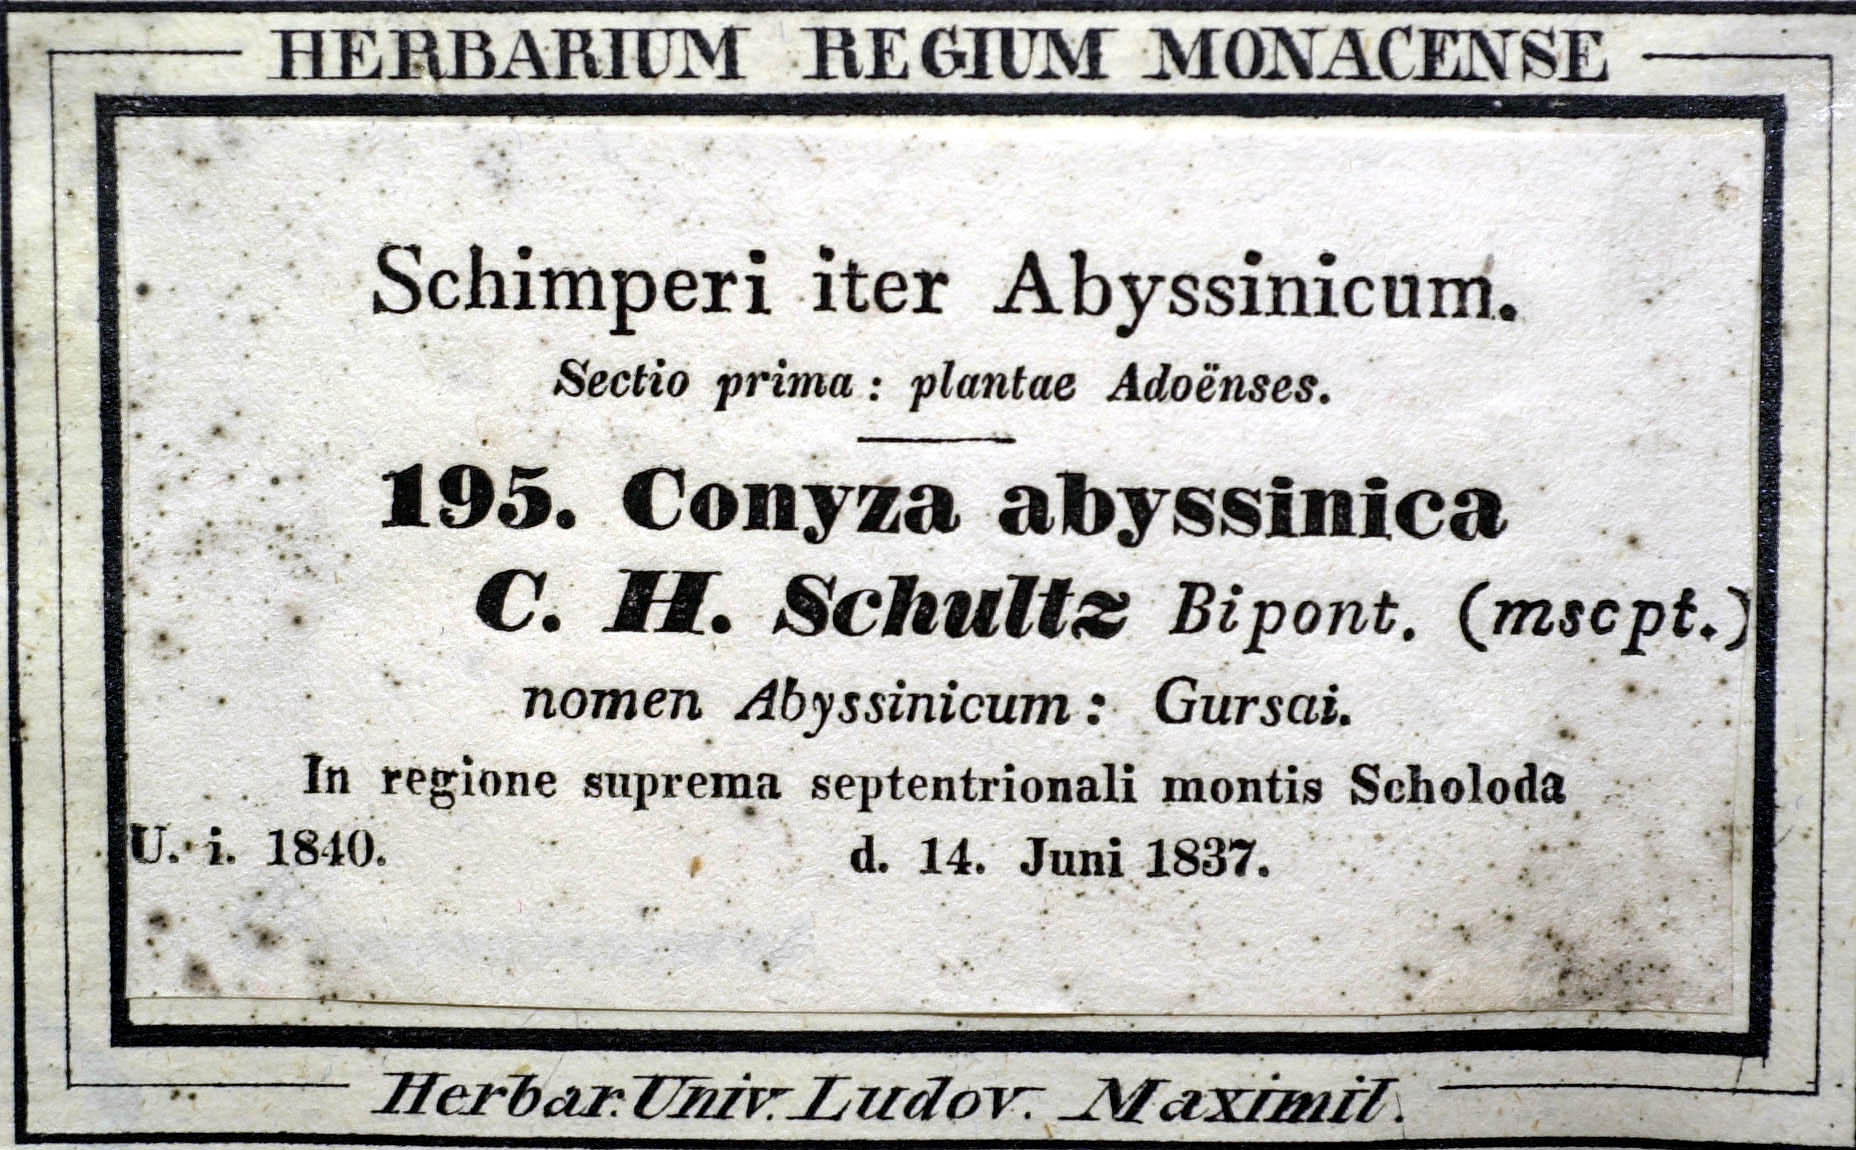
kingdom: Plantae
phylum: Tracheophyta
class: Magnoliopsida
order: Asterales
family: Asteraceae
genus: Conyza
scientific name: Conyza abyssinica
